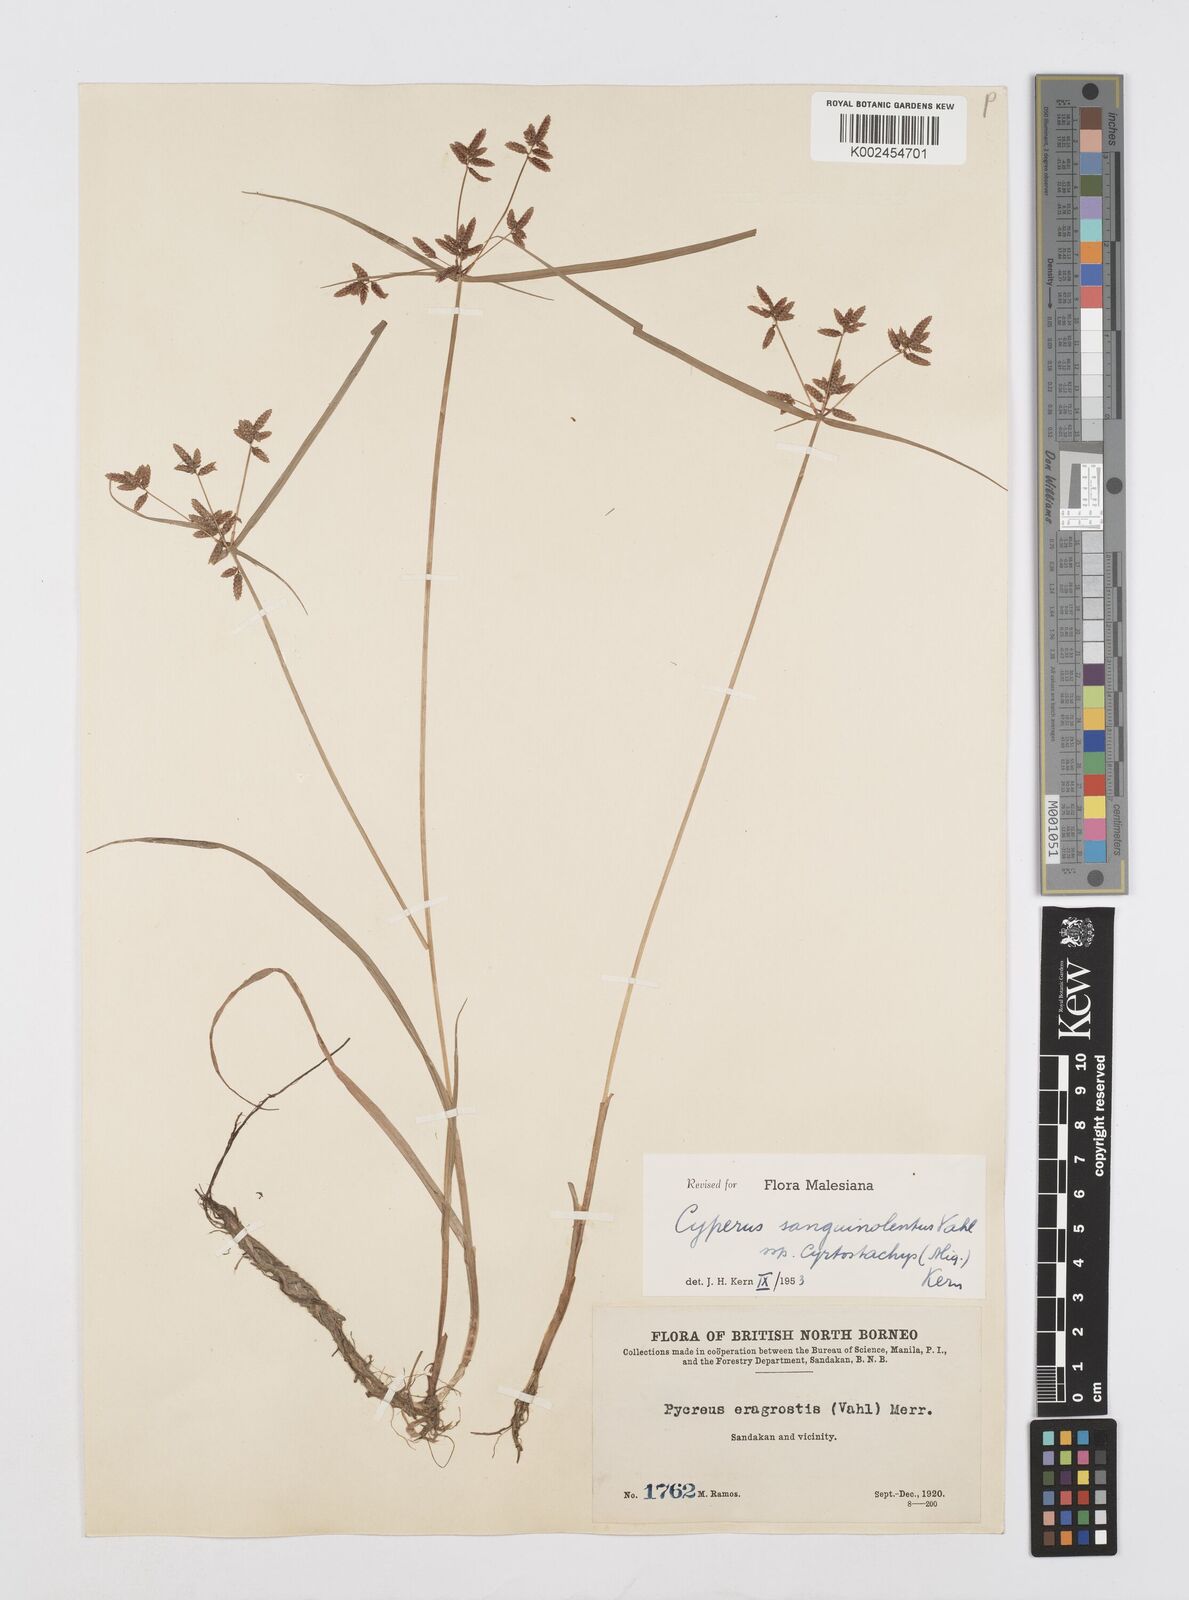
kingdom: Plantae
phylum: Tracheophyta
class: Liliopsida
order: Poales
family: Cyperaceae
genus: Cyperus
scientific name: Cyperus sanguinolentus
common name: Purpleglume flatsedge
